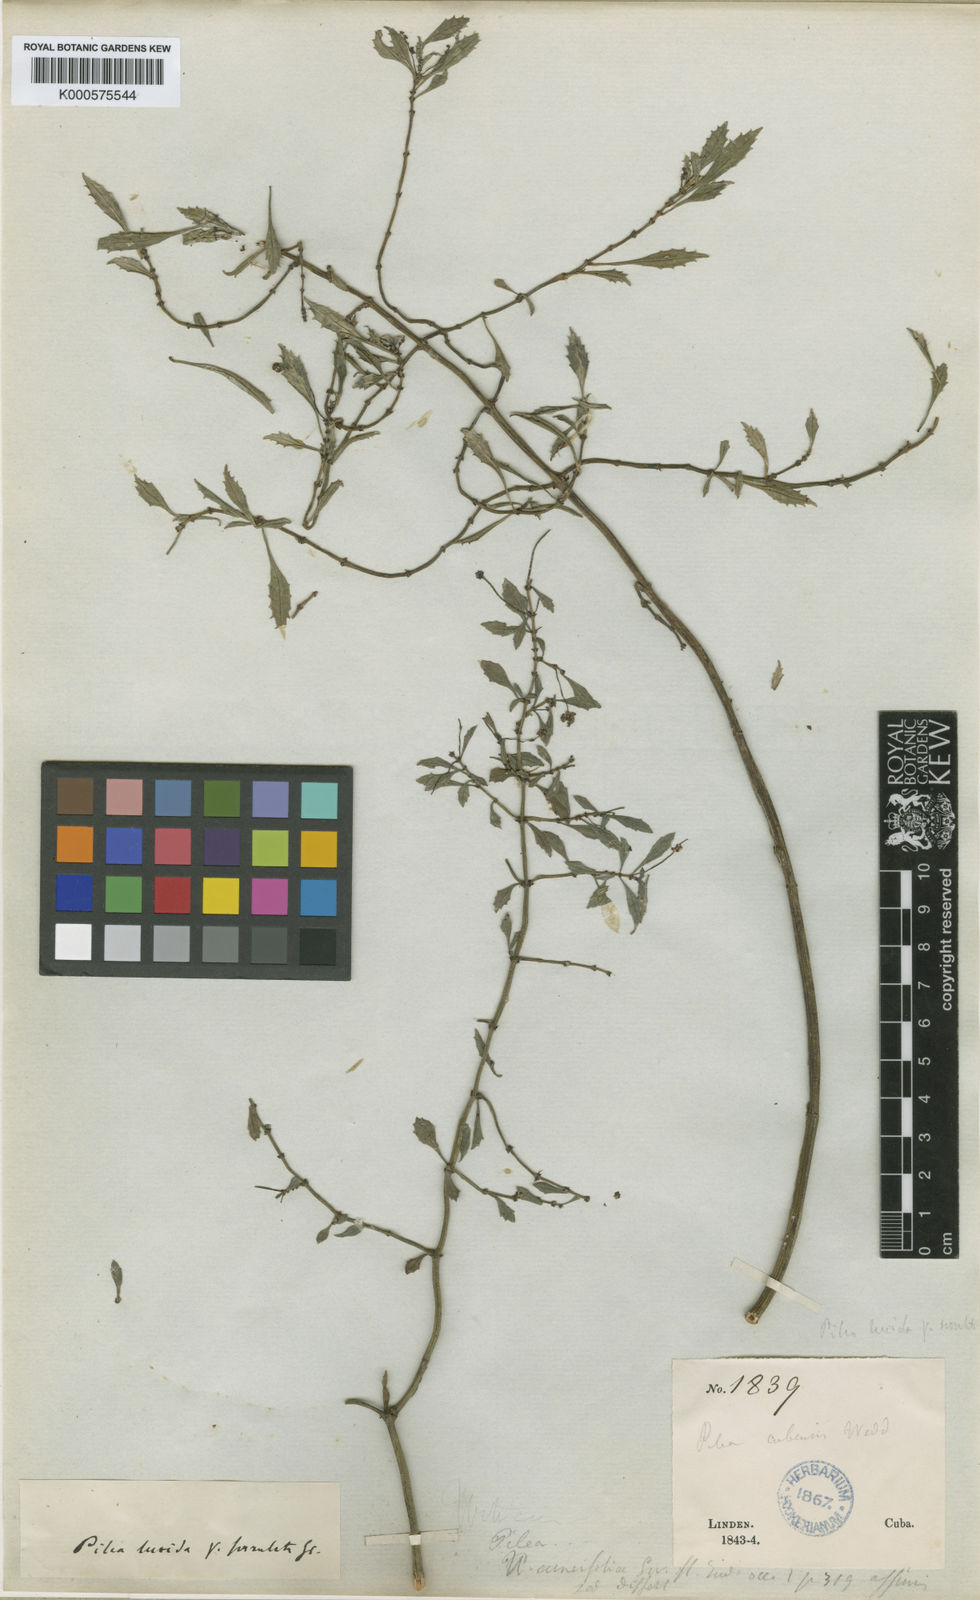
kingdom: Plantae
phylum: Tracheophyta
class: Magnoliopsida
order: Rosales
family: Urticaceae
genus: Pilea
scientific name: Pilea serrulata
